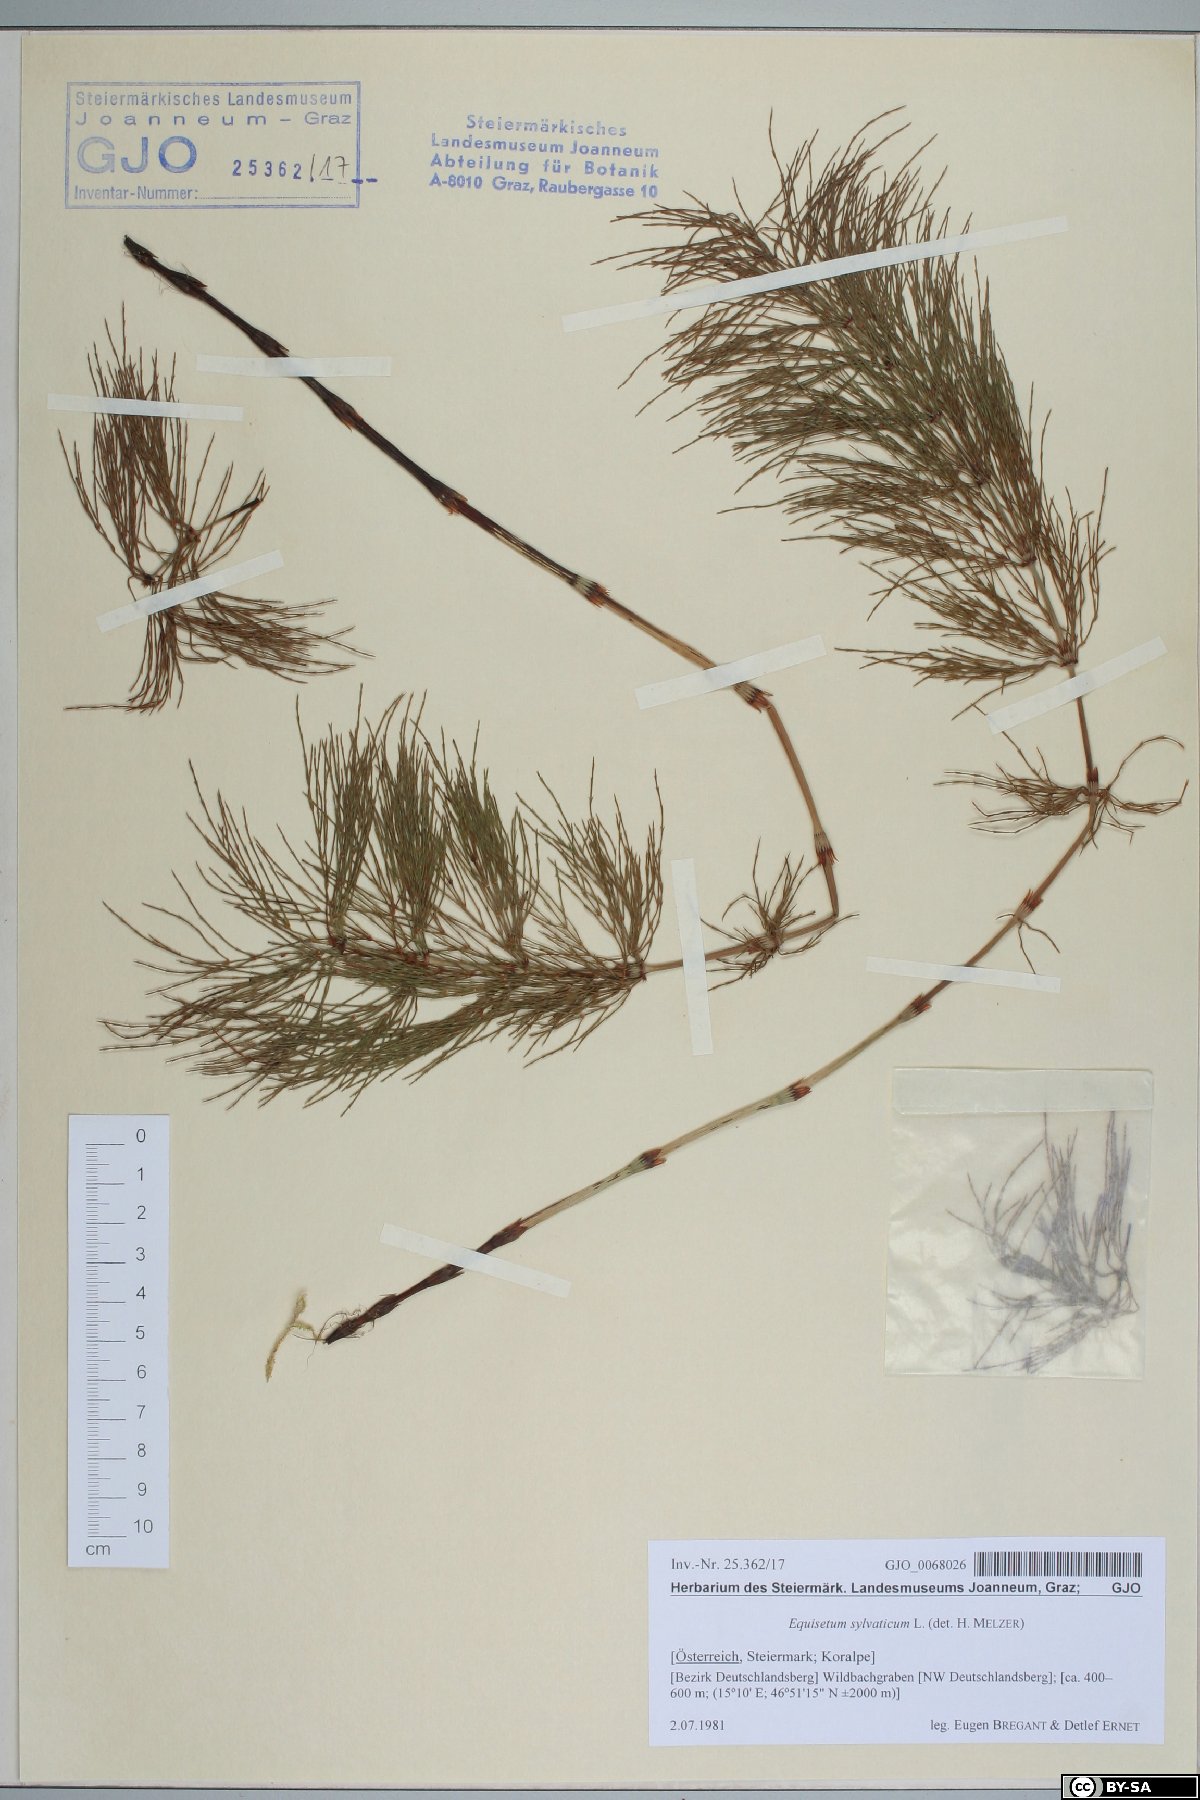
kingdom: Plantae
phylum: Tracheophyta
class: Polypodiopsida
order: Equisetales
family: Equisetaceae
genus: Equisetum
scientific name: Equisetum sylvaticum
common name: Wood horsetail
